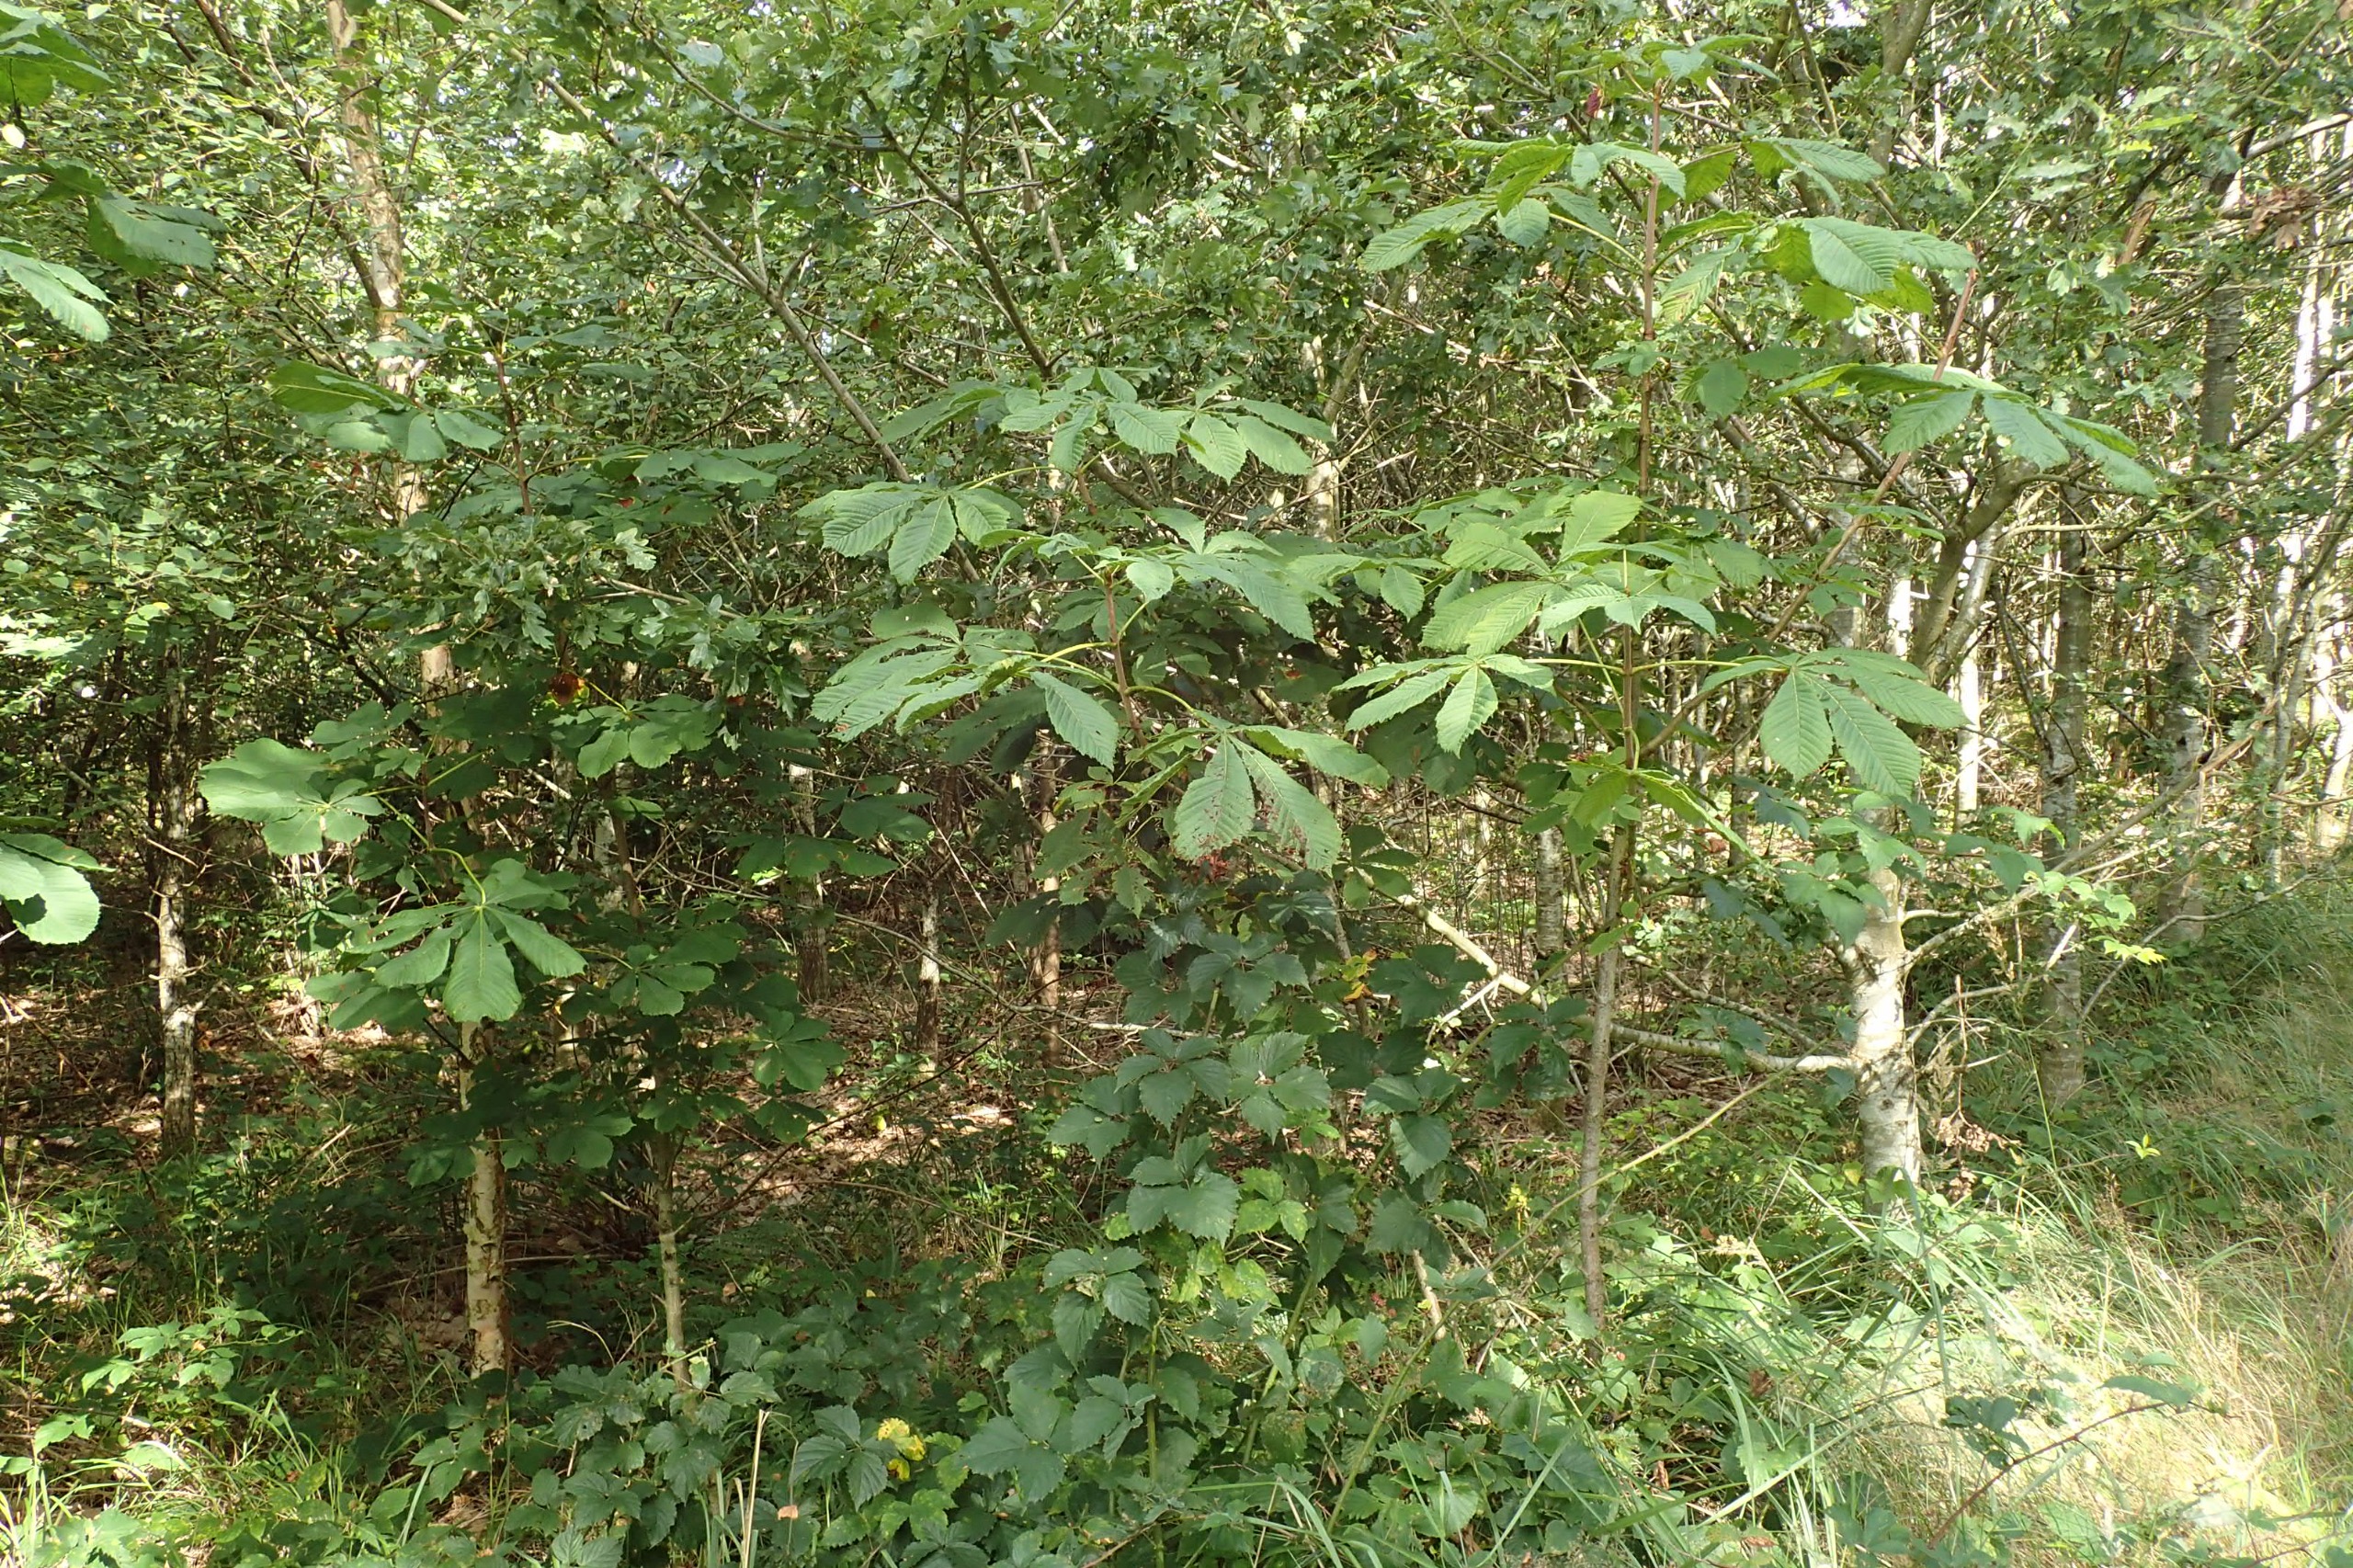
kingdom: Plantae
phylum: Tracheophyta
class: Magnoliopsida
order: Sapindales
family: Sapindaceae
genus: Aesculus
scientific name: Aesculus hippocastanum
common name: Hestekastanie
